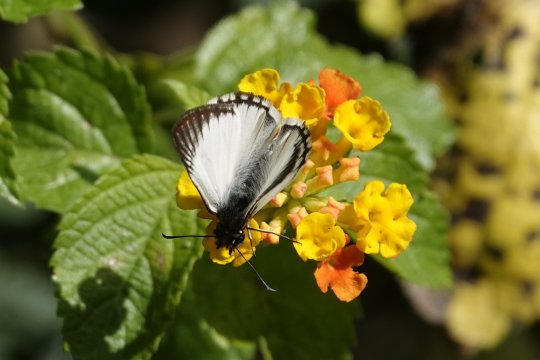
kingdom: Animalia
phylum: Arthropoda
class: Insecta
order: Lepidoptera
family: Hesperiidae
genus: Heliopetes
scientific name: Heliopetes arsalte
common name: Veined White-Skipper
